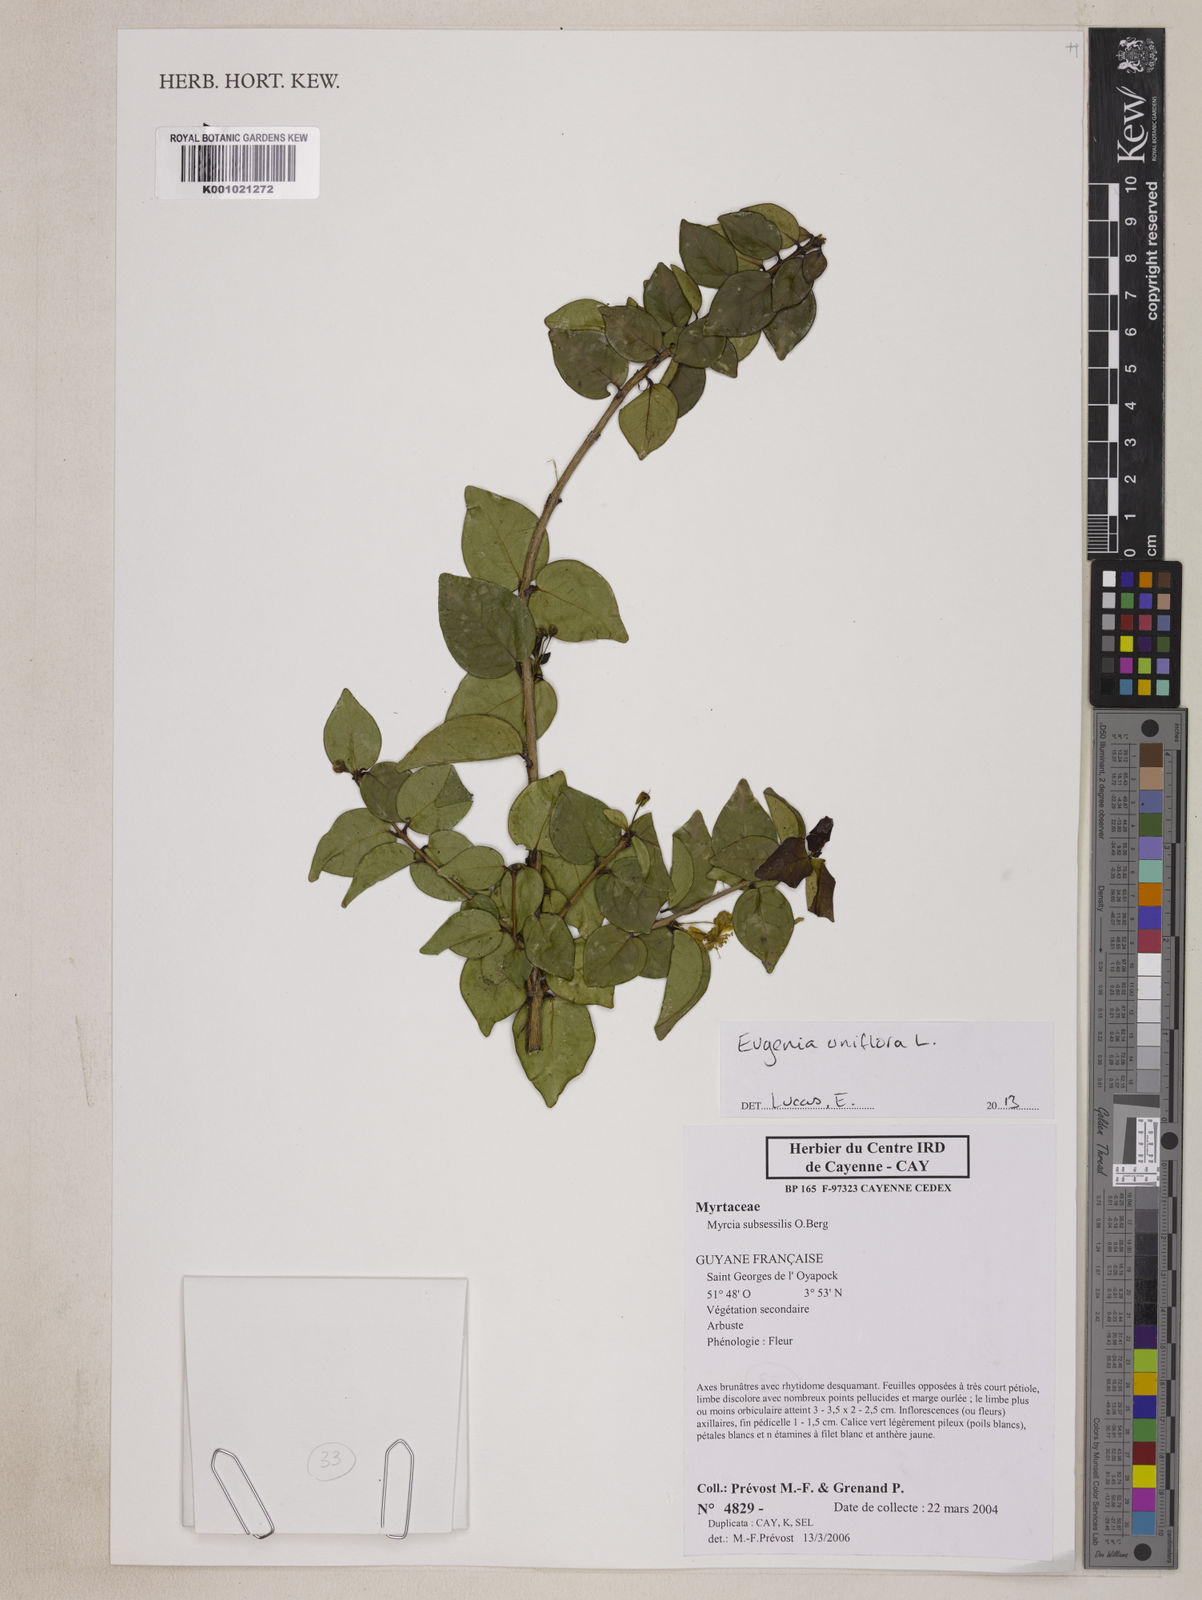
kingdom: Plantae
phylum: Tracheophyta
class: Magnoliopsida
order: Myrtales
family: Myrtaceae
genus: Eugenia
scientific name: Eugenia uniflora
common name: Surinam cherry
